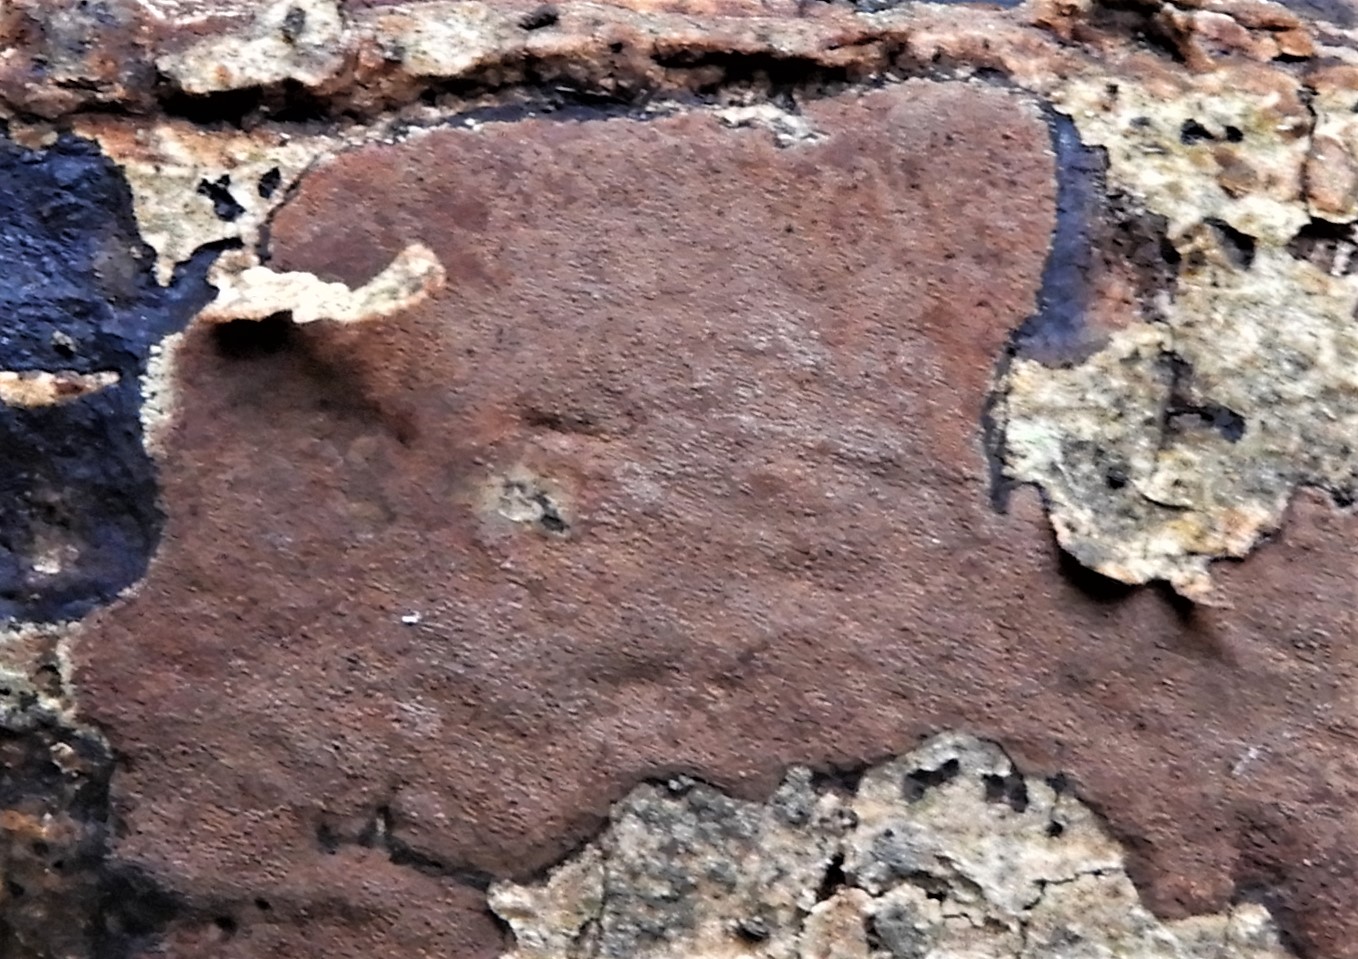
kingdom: Fungi
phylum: Ascomycota
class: Sordariomycetes
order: Xylariales
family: Hypoxylaceae
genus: Hypoxylon
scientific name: Hypoxylon petriniae
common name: nedsænket kulbær
